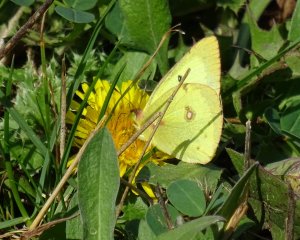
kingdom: Animalia
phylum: Arthropoda
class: Insecta
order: Lepidoptera
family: Pieridae
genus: Colias
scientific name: Colias philodice
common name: Clouded Sulphur
